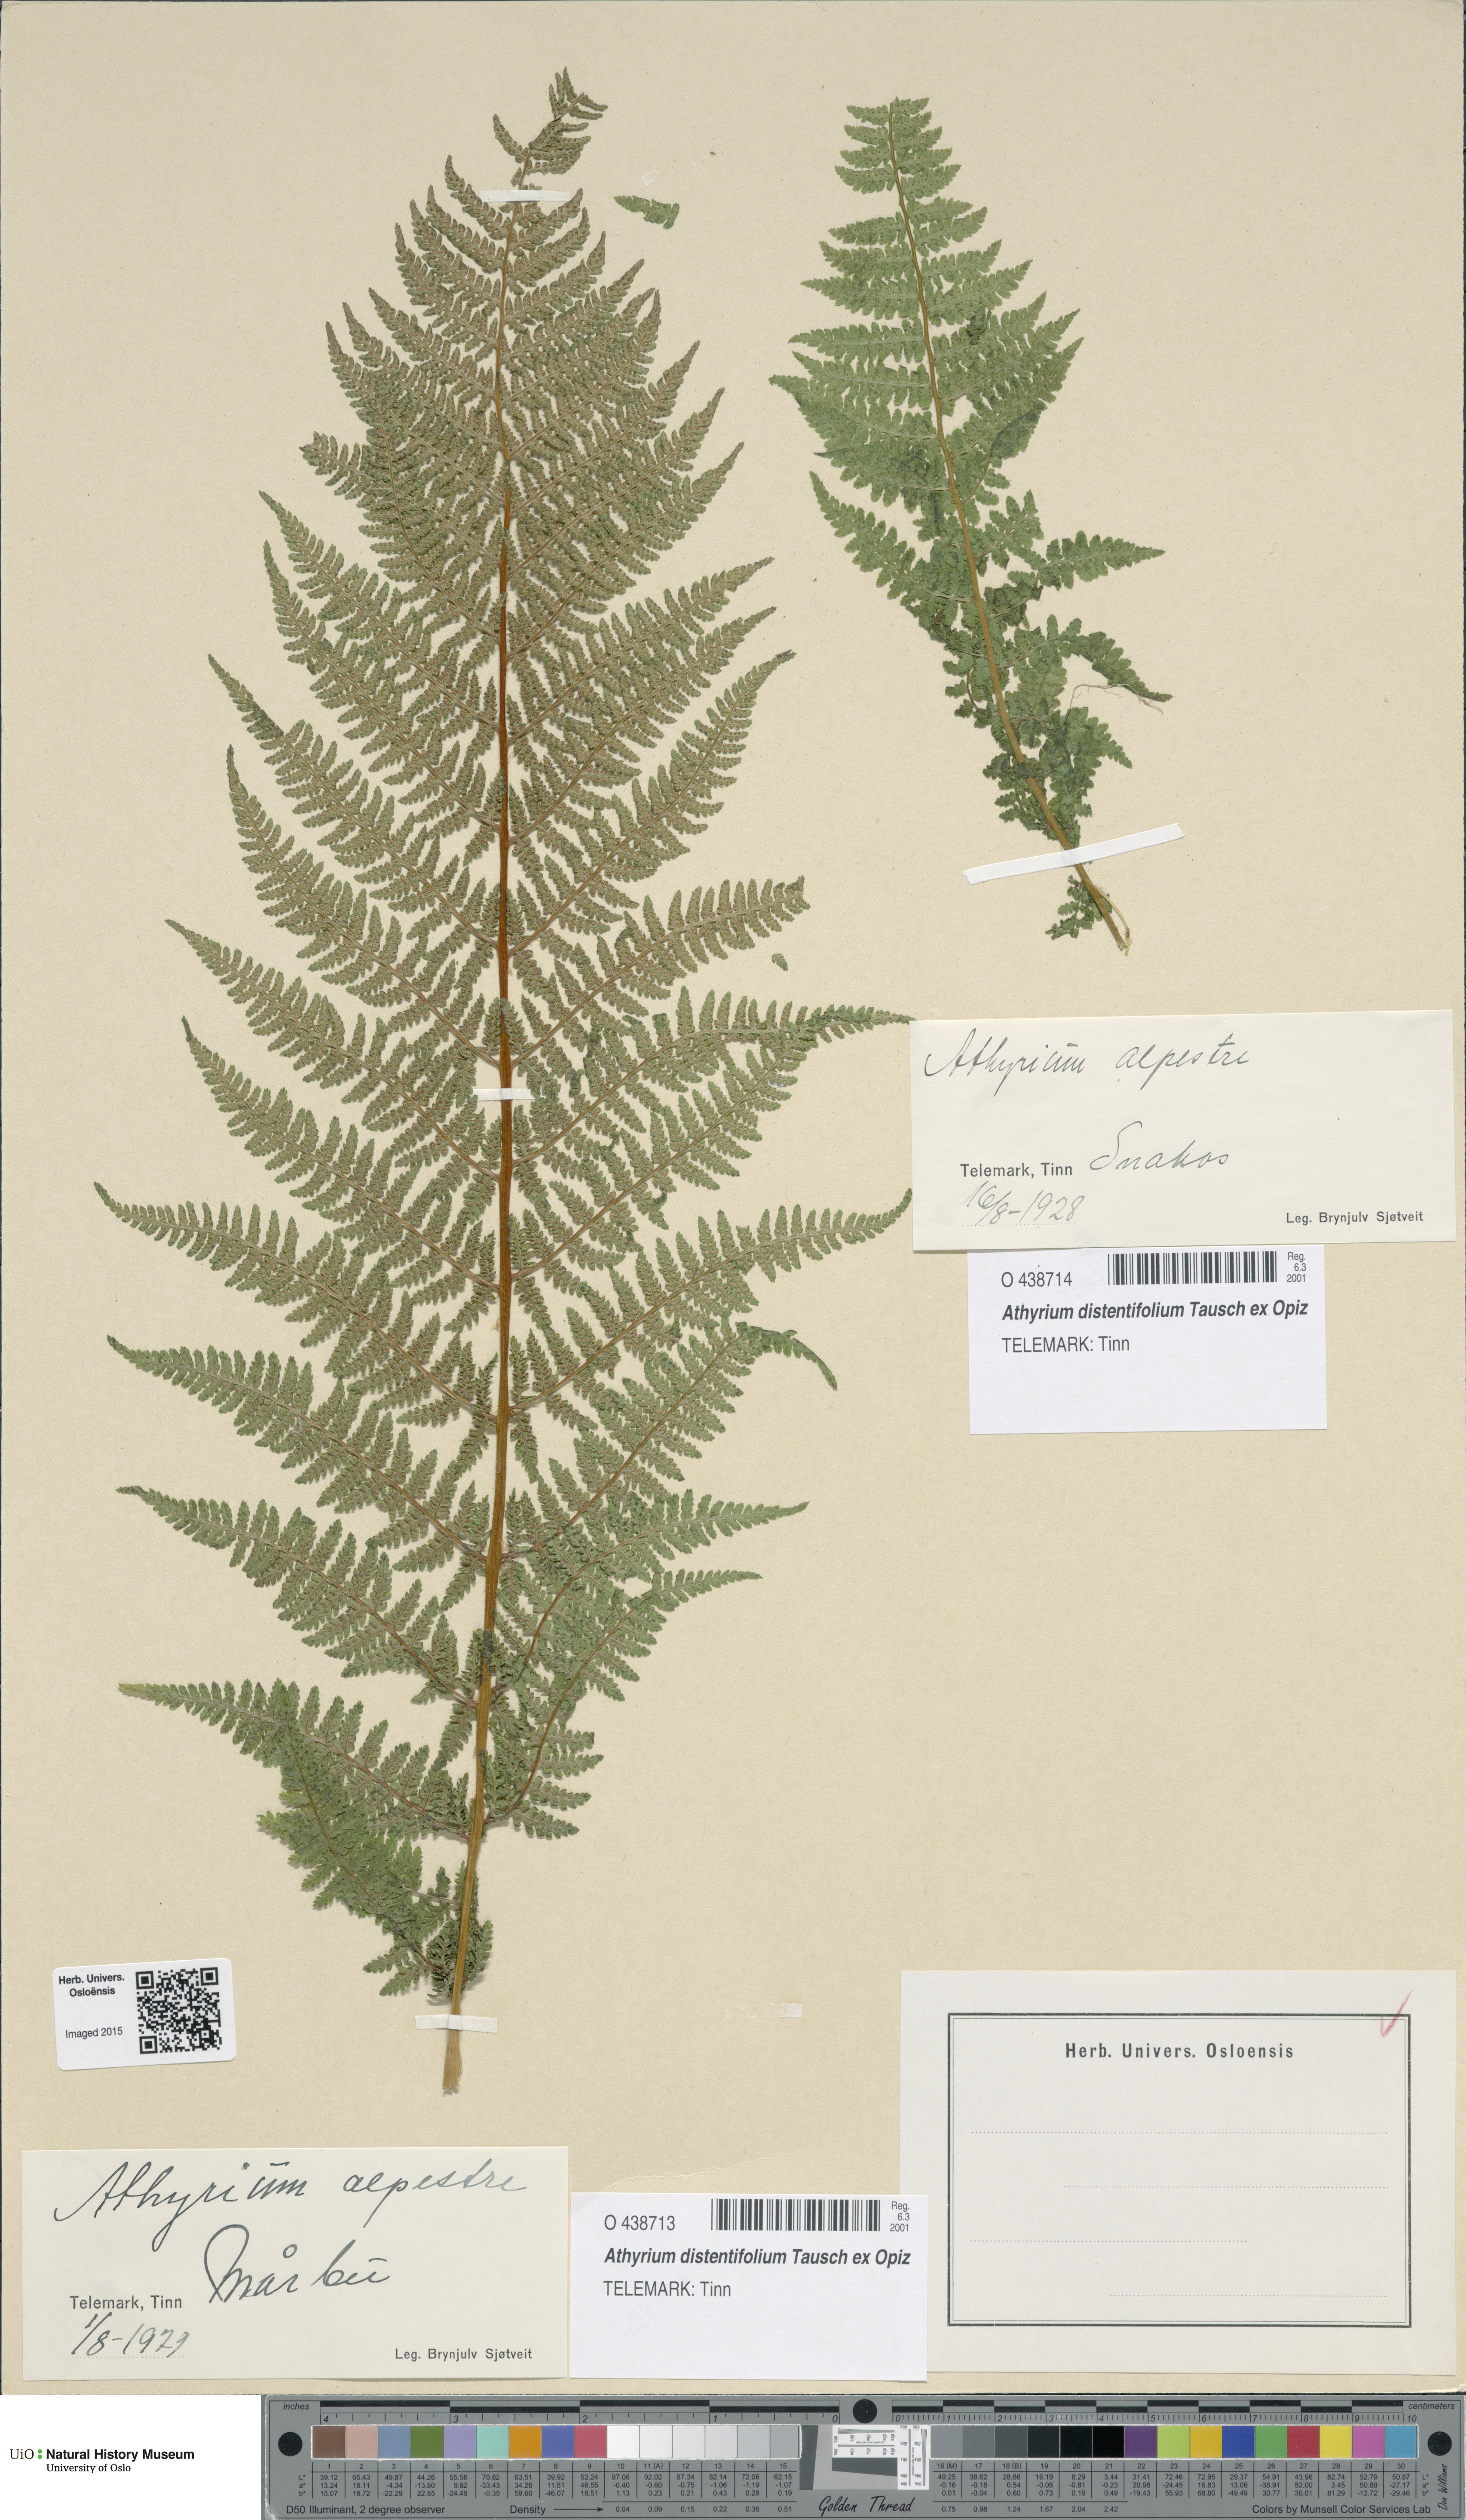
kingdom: Plantae
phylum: Tracheophyta
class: Polypodiopsida
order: Polypodiales
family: Athyriaceae
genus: Pseudathyrium
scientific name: Pseudathyrium alpestre
